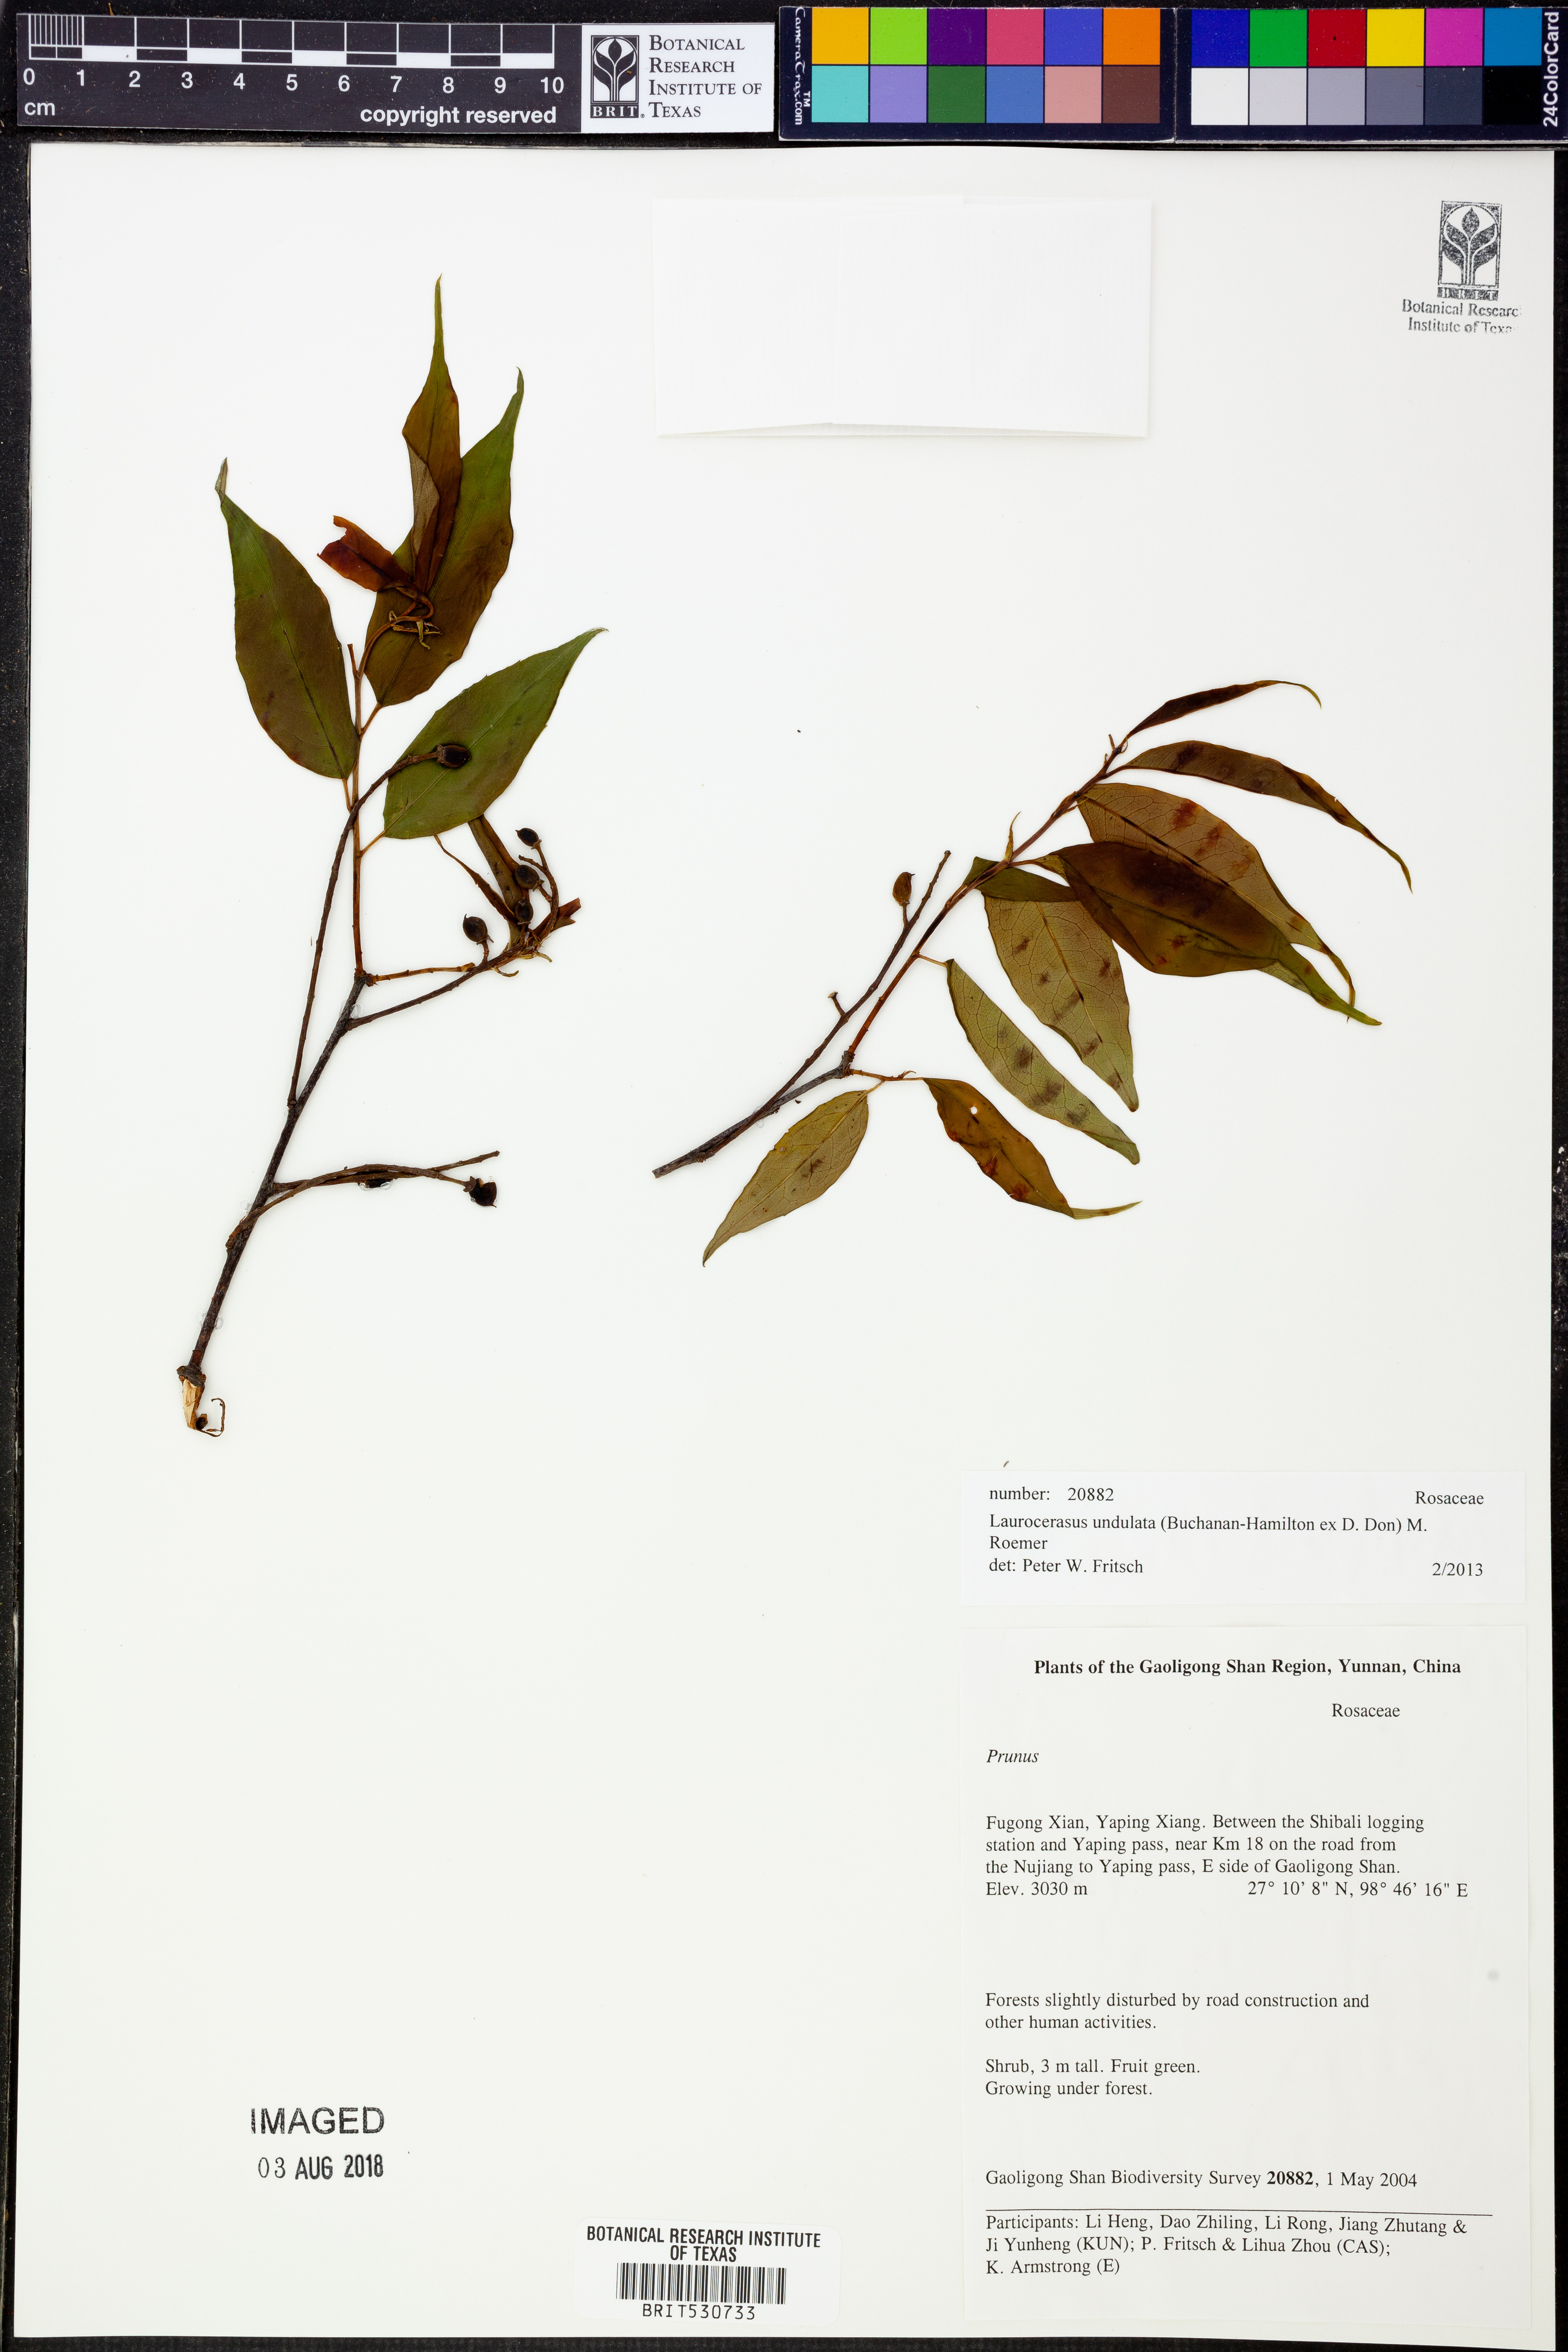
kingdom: Plantae
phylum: Tracheophyta
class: Magnoliopsida
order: Rosales
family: Rosaceae
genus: Prunus
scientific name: Prunus undulata
